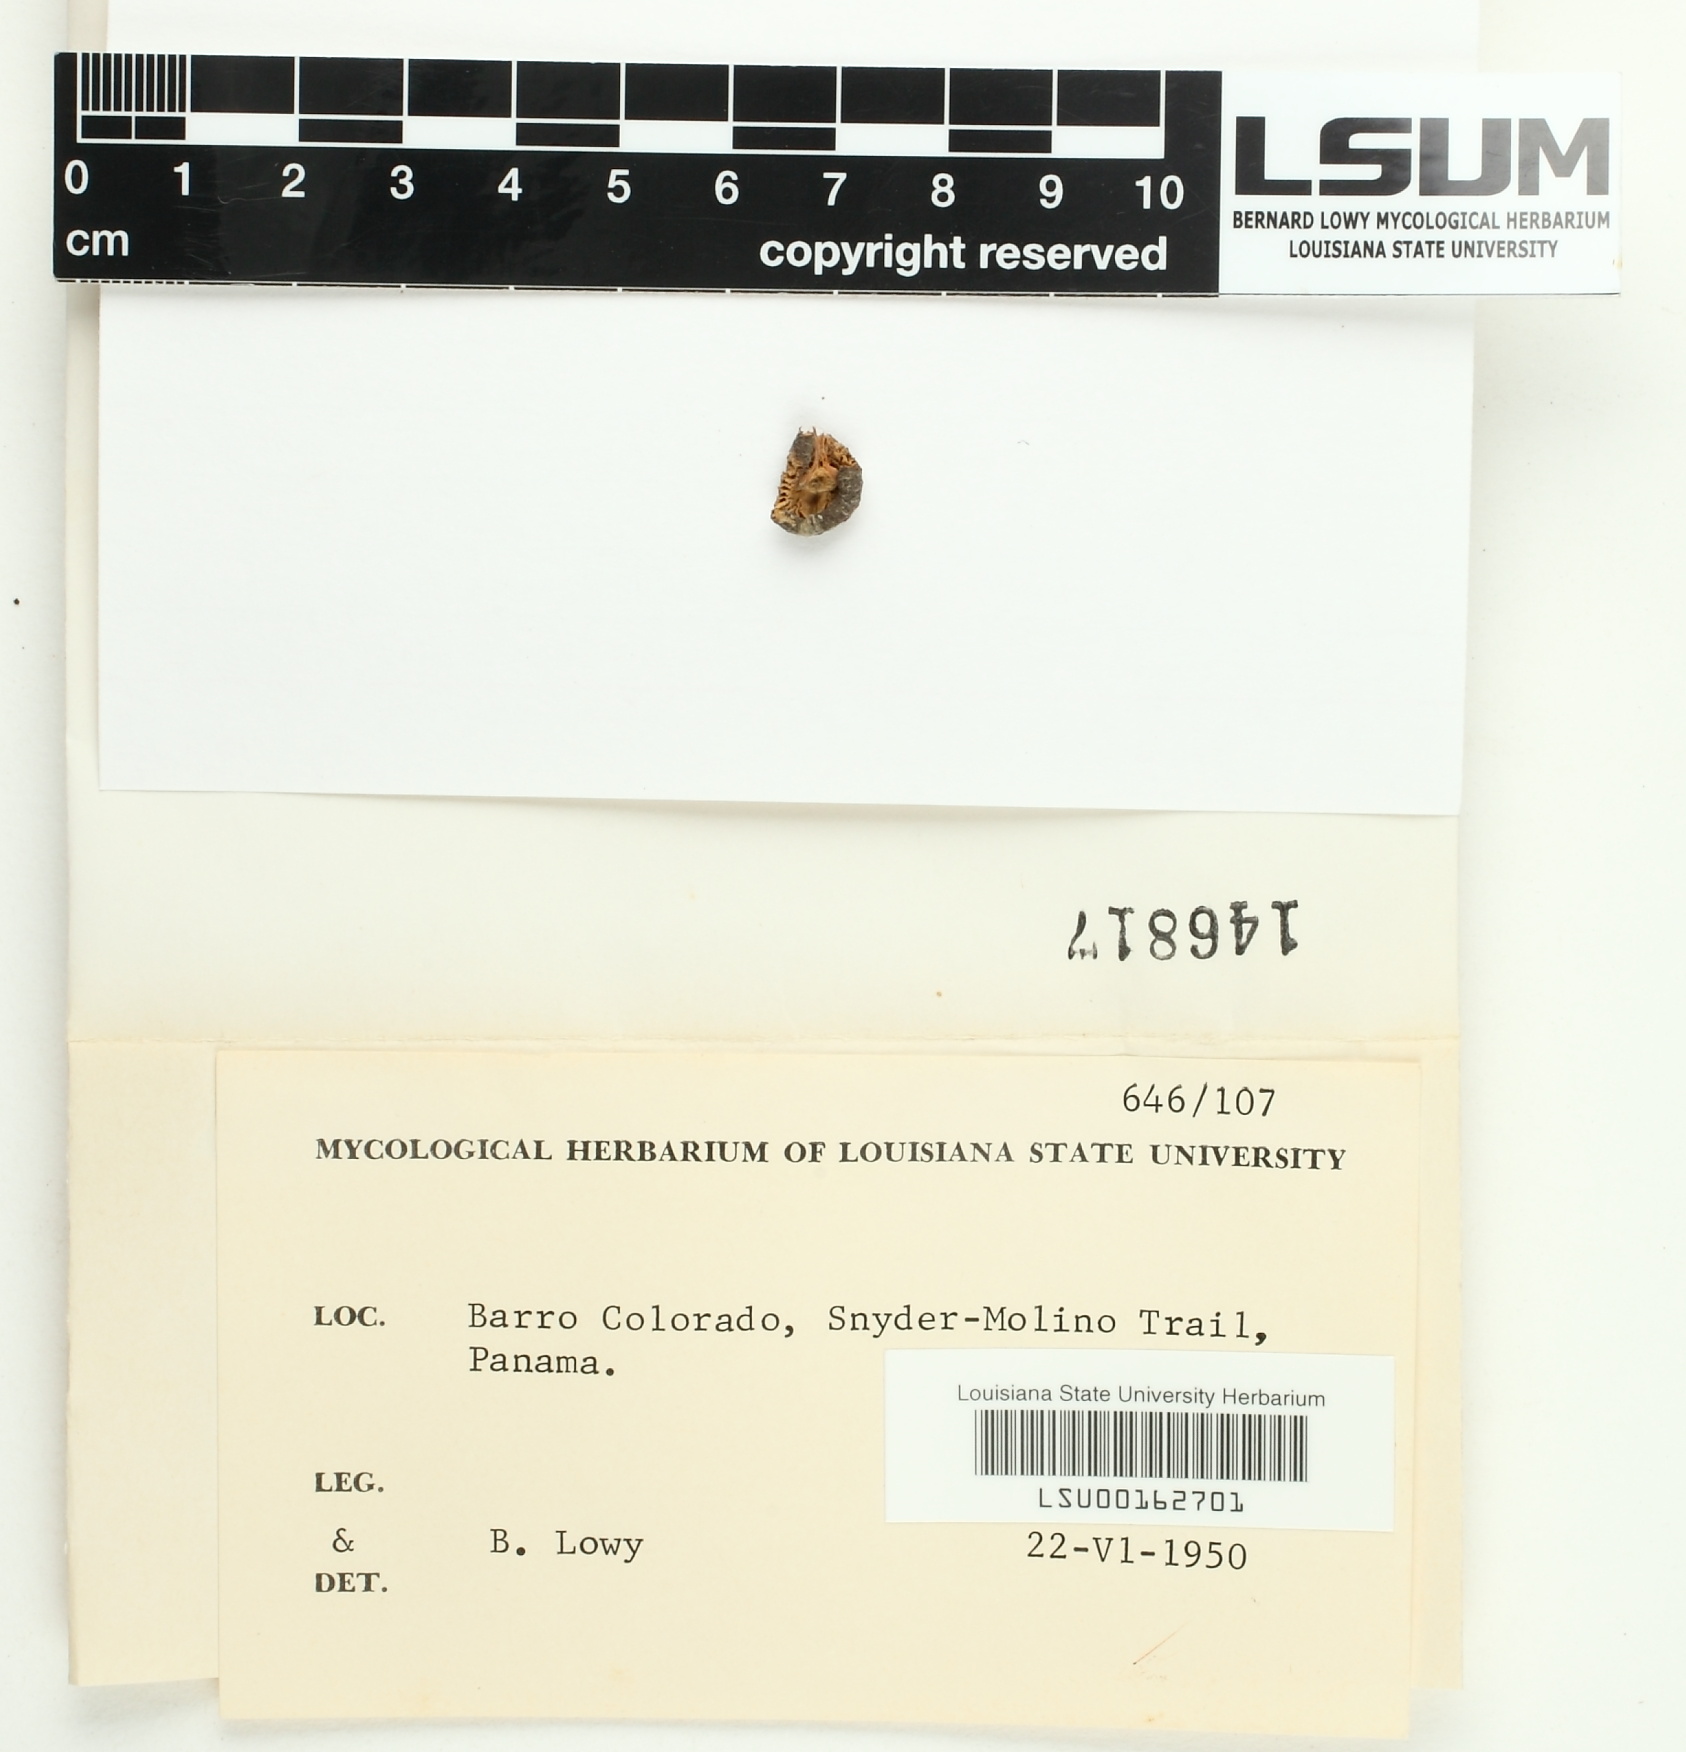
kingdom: Fungi
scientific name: Fungi
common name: Fungi
